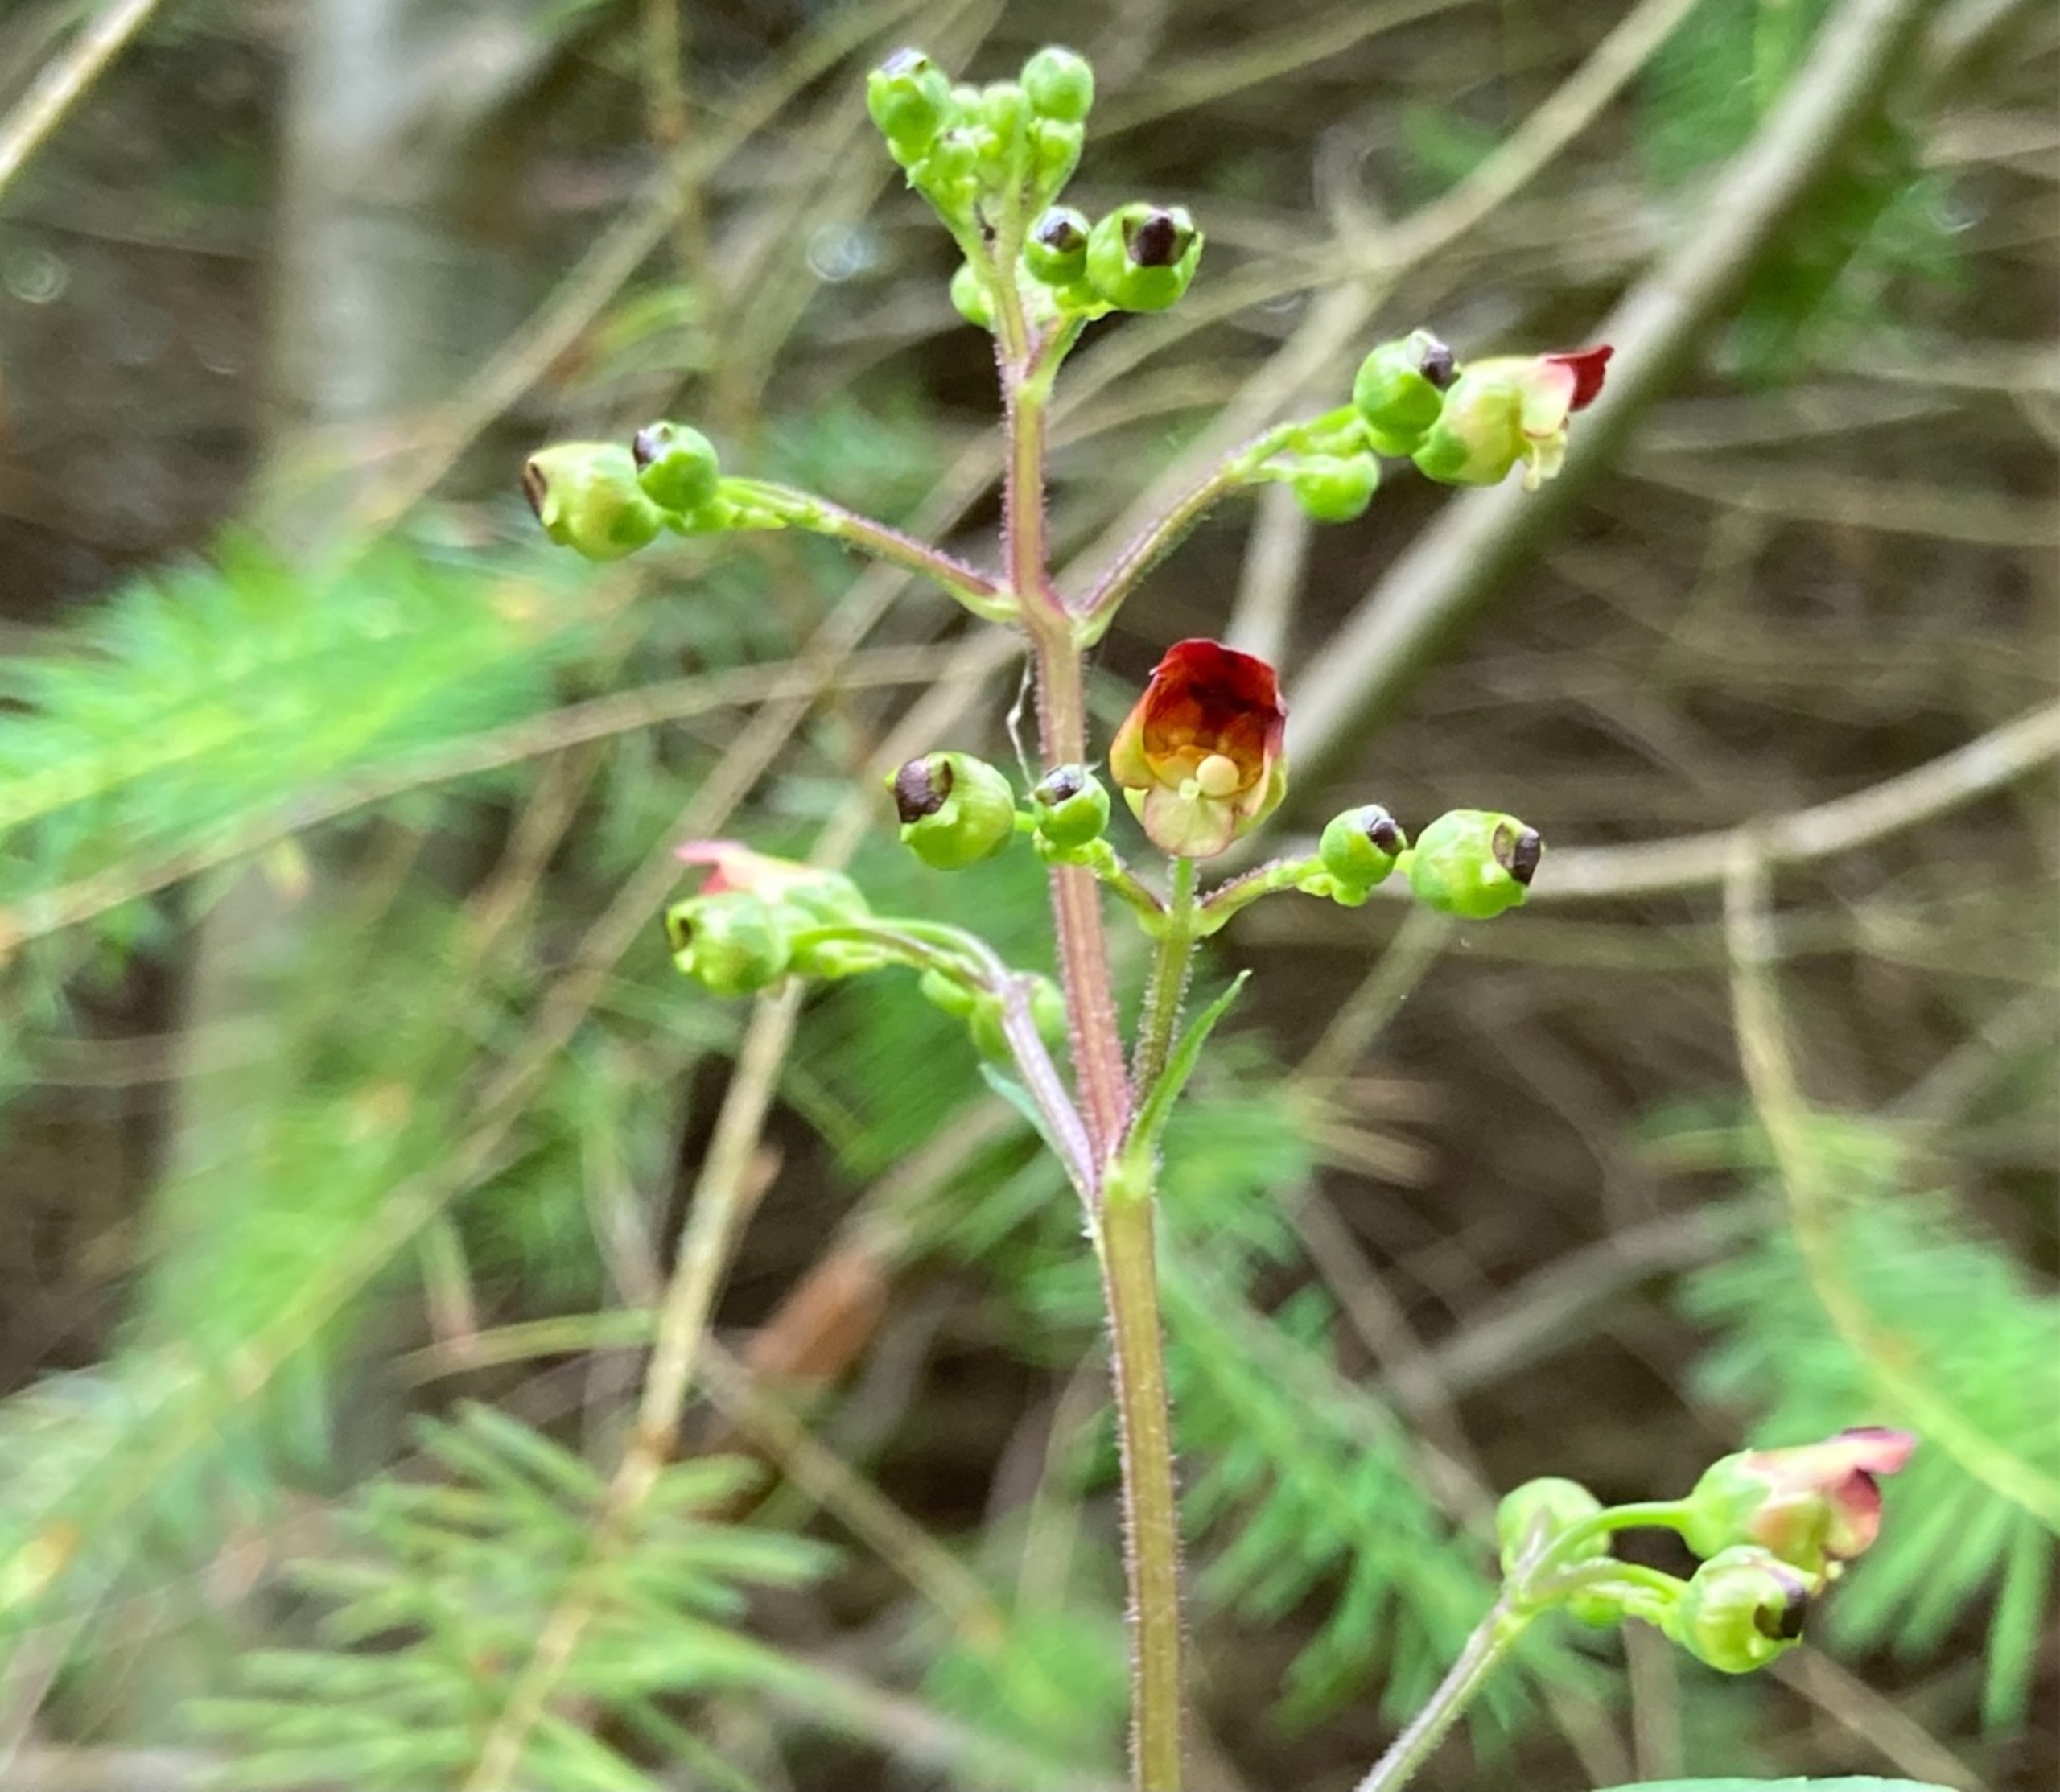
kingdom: Plantae
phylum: Tracheophyta
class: Magnoliopsida
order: Lamiales
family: Scrophulariaceae
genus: Scrophularia
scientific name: Scrophularia nodosa
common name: Knoldet brunrod
